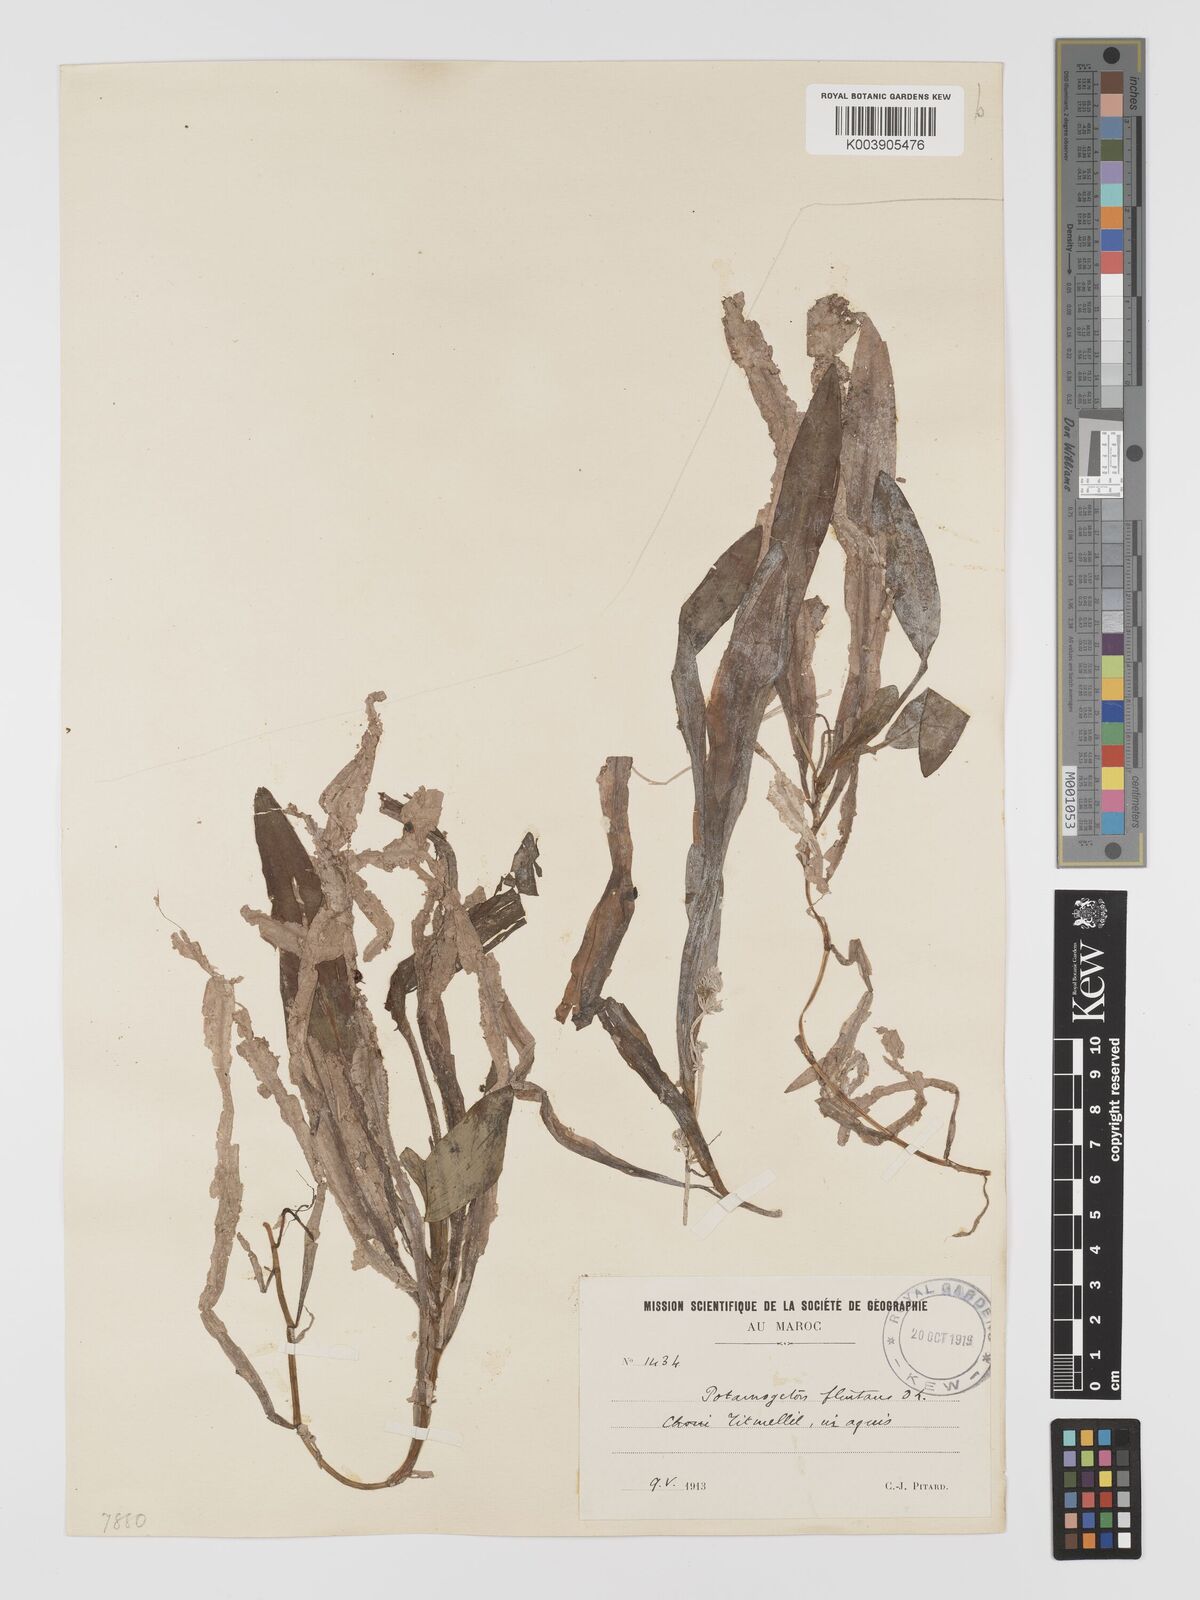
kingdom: Plantae
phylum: Tracheophyta
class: Liliopsida
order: Alismatales
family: Potamogetonaceae
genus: Potamogeton
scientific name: Potamogeton nodosus
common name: Loddon pondweed
